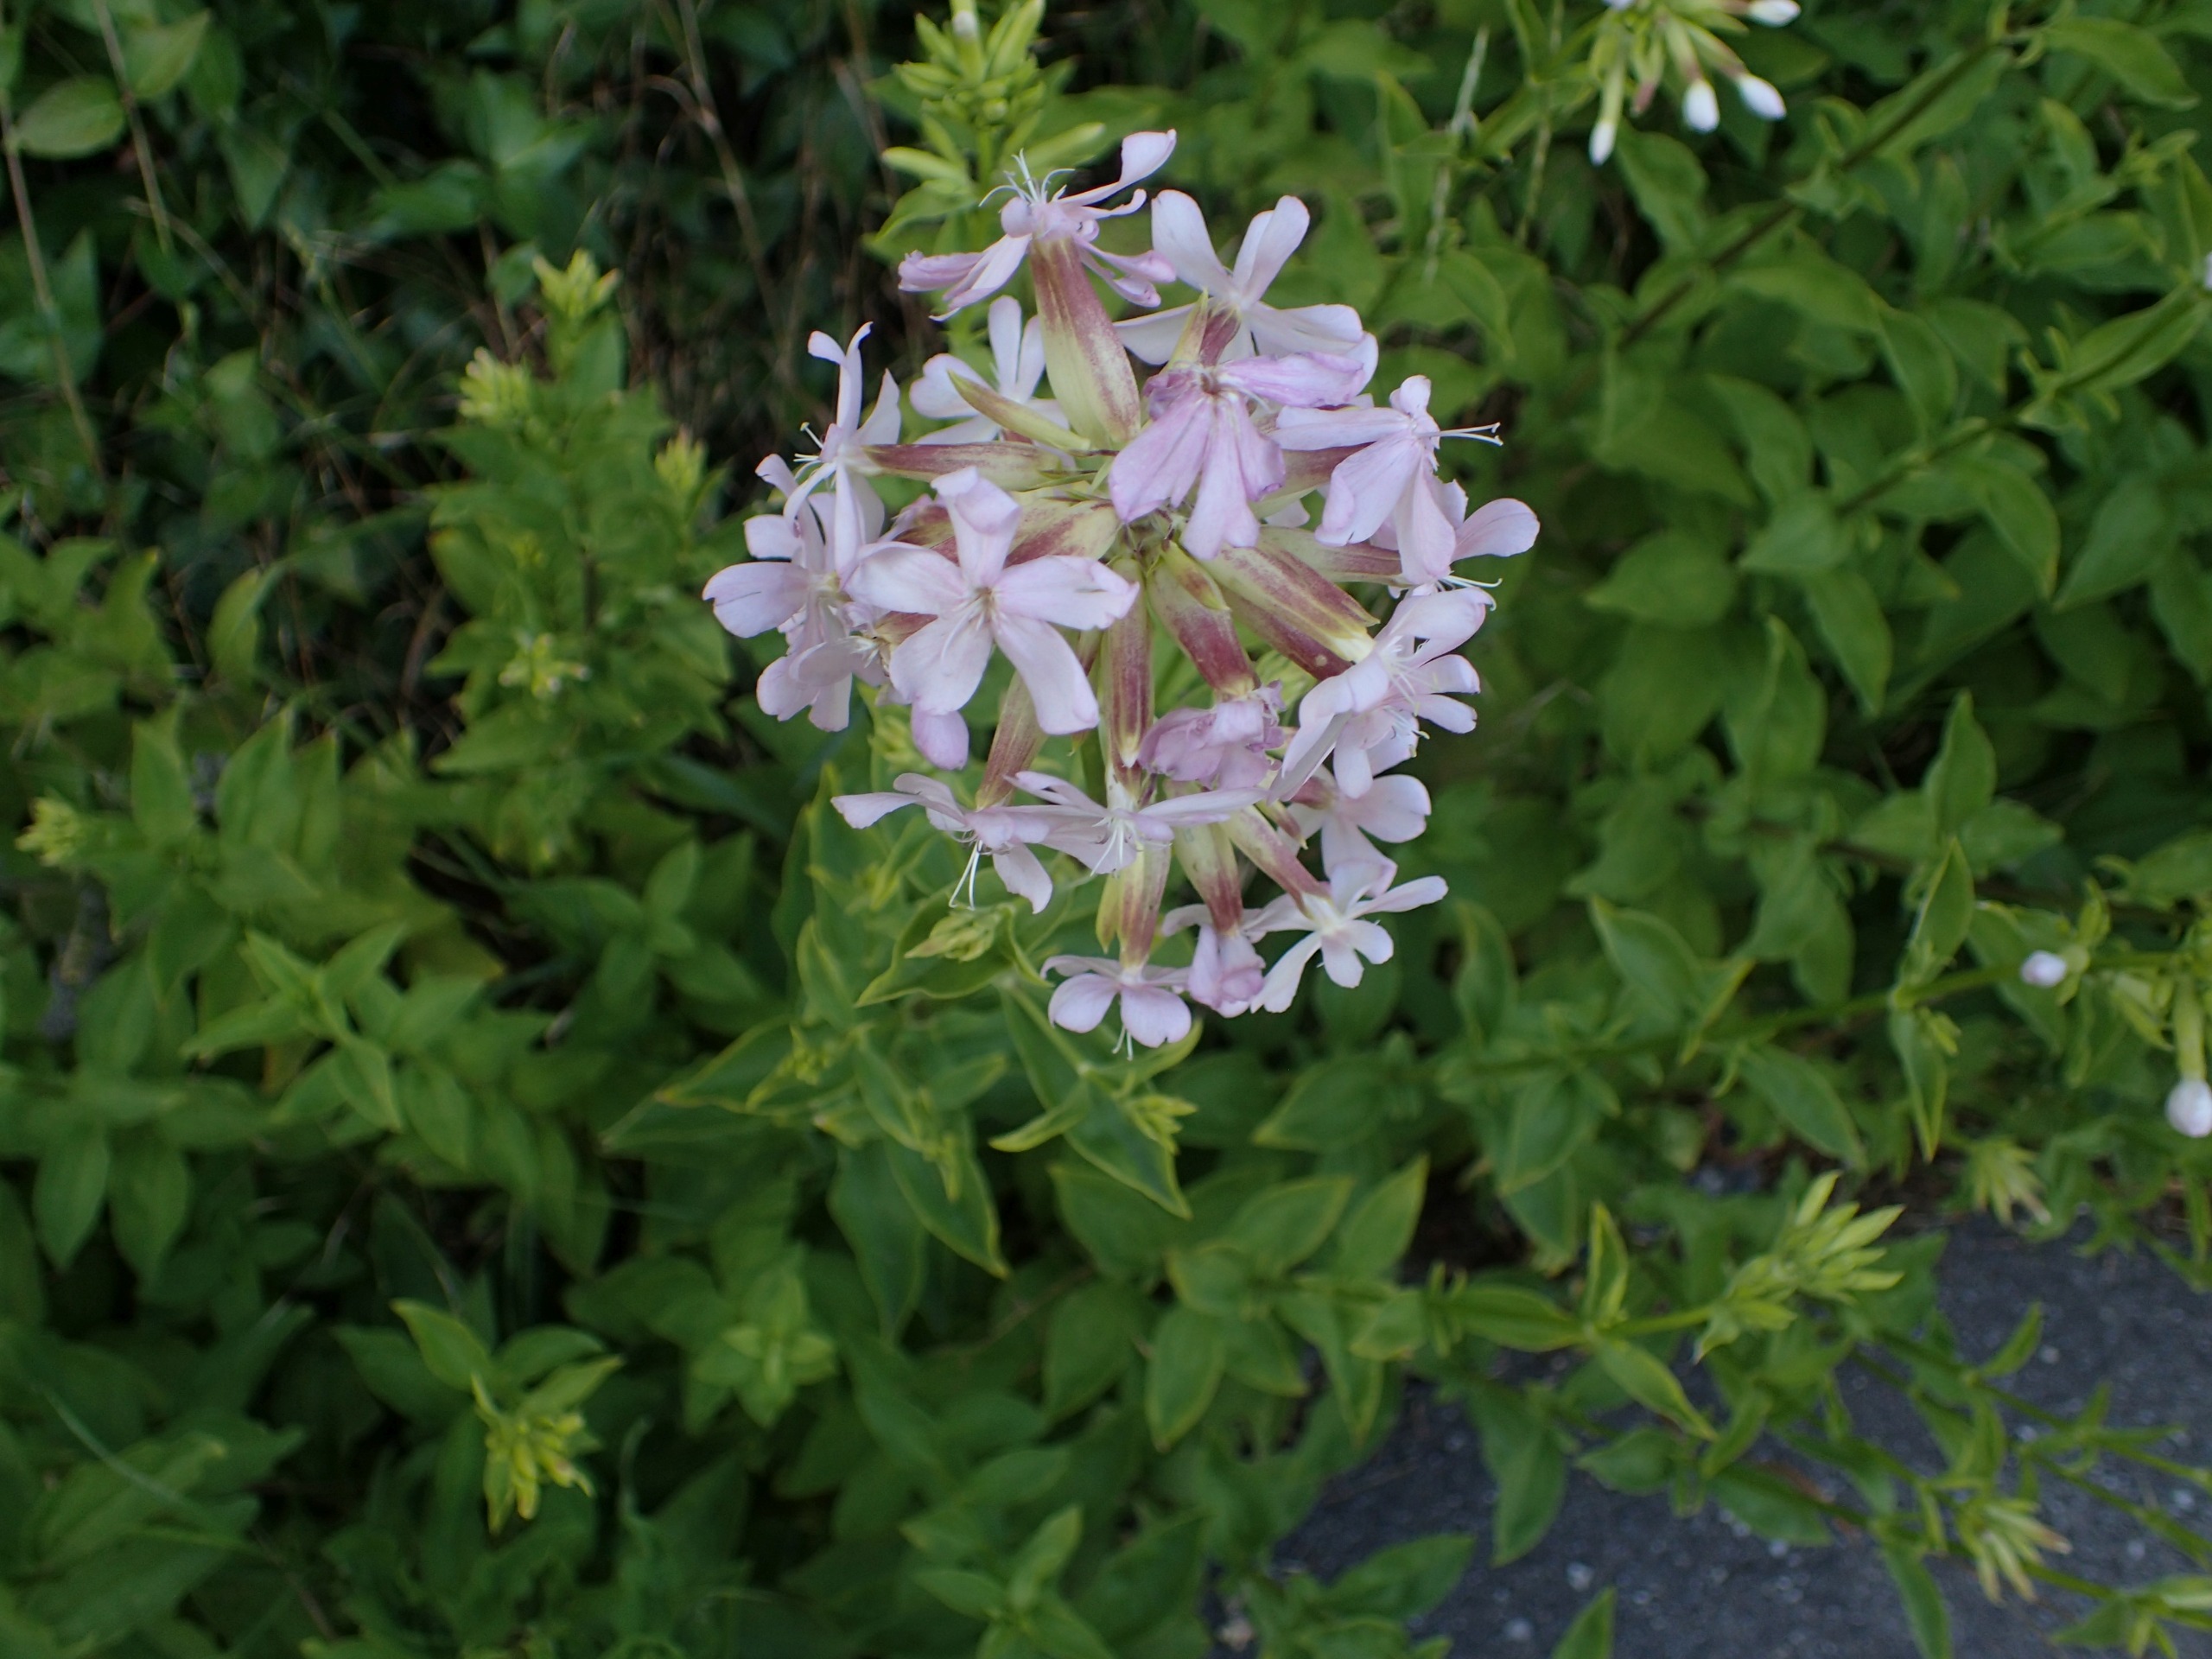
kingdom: Plantae
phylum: Tracheophyta
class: Magnoliopsida
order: Caryophyllales
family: Caryophyllaceae
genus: Saponaria
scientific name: Saponaria officinalis
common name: Sæbeurt
